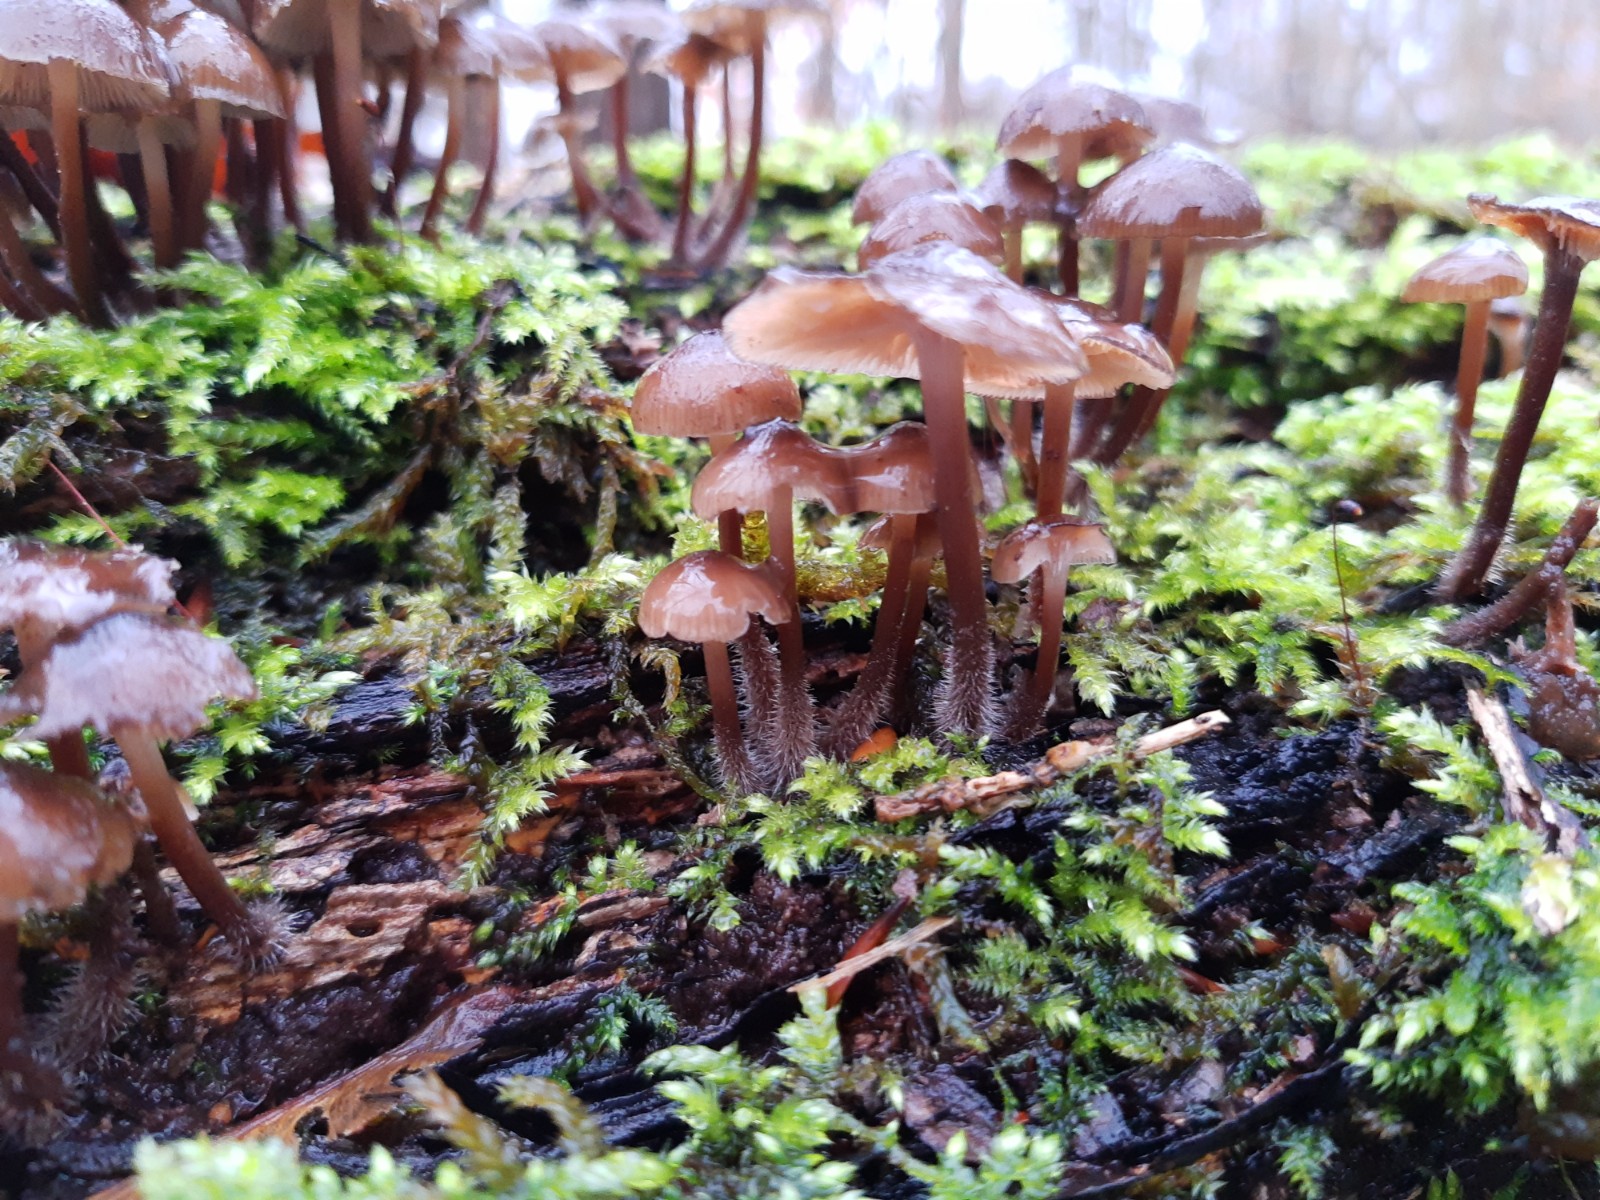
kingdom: Fungi
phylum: Basidiomycota
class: Agaricomycetes
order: Agaricales
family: Mycenaceae
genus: Mycena
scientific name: Mycena tintinnabulum
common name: vinter-huesvamp
